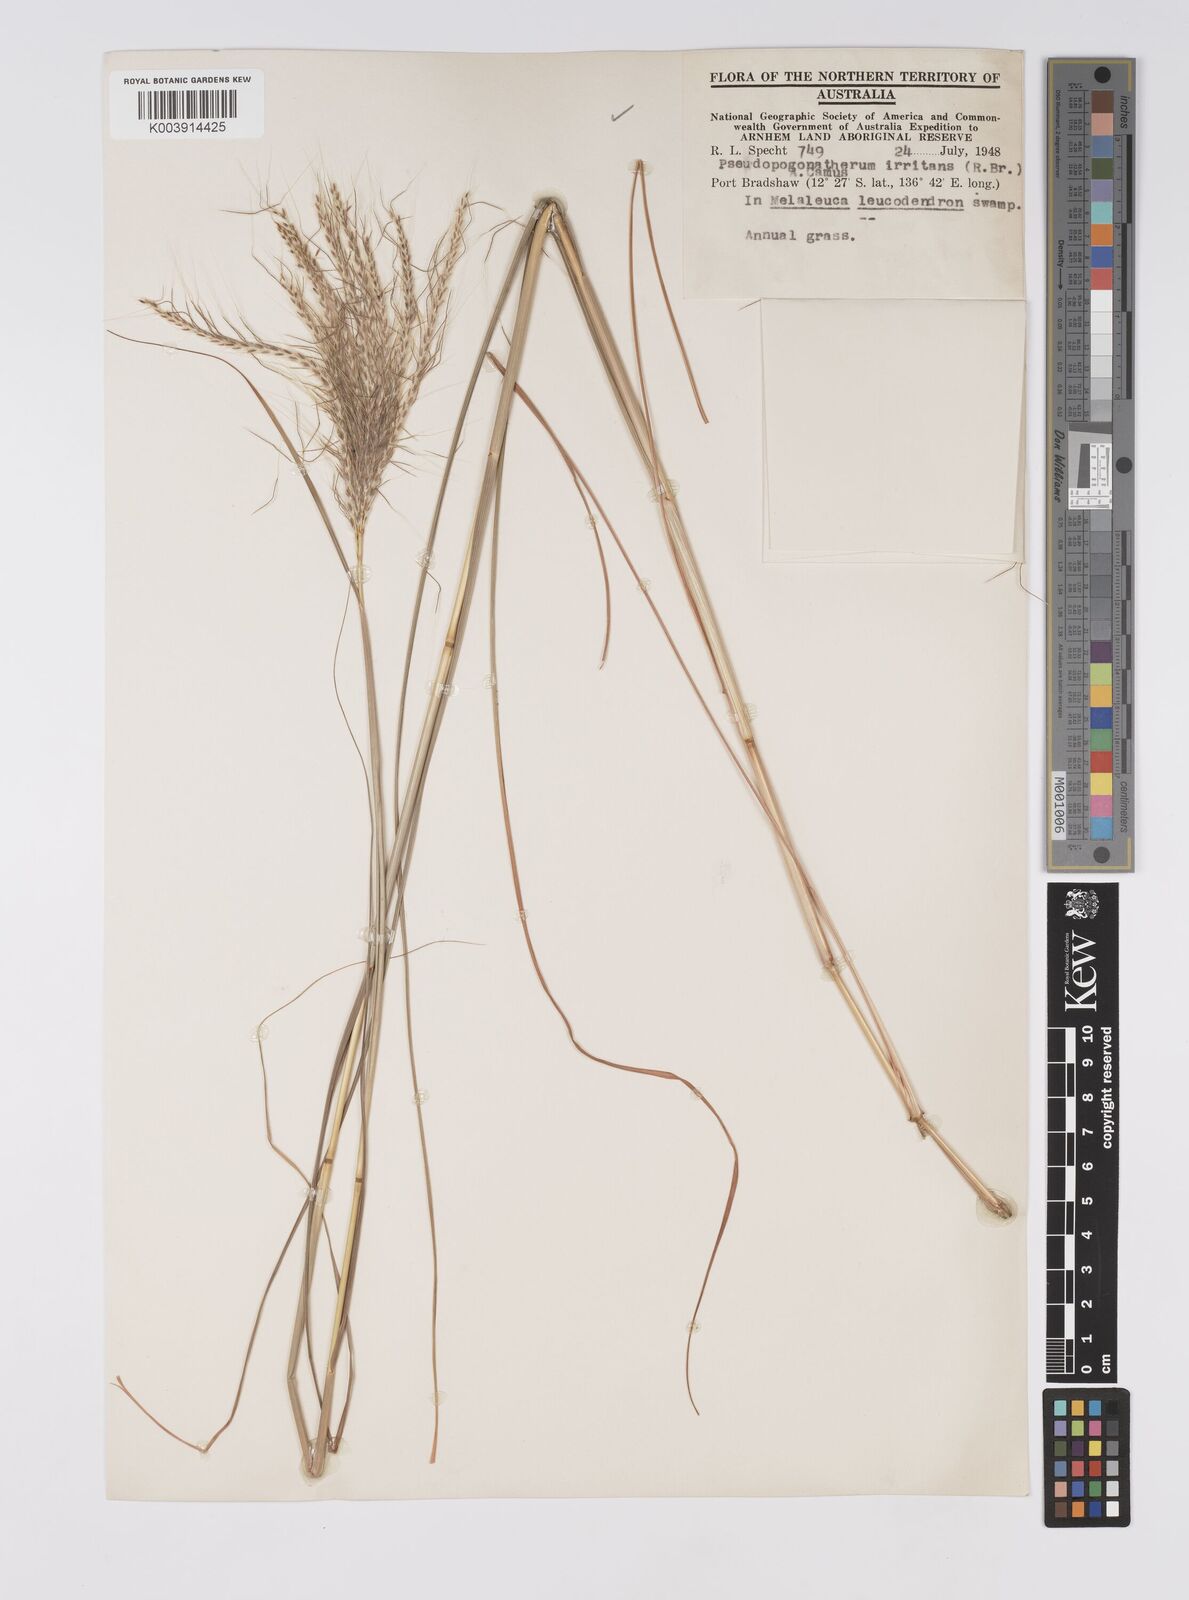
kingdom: Plantae
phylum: Tracheophyta
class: Liliopsida
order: Poales
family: Poaceae
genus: Pseudopogonatherum
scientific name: Pseudopogonatherum irritans
